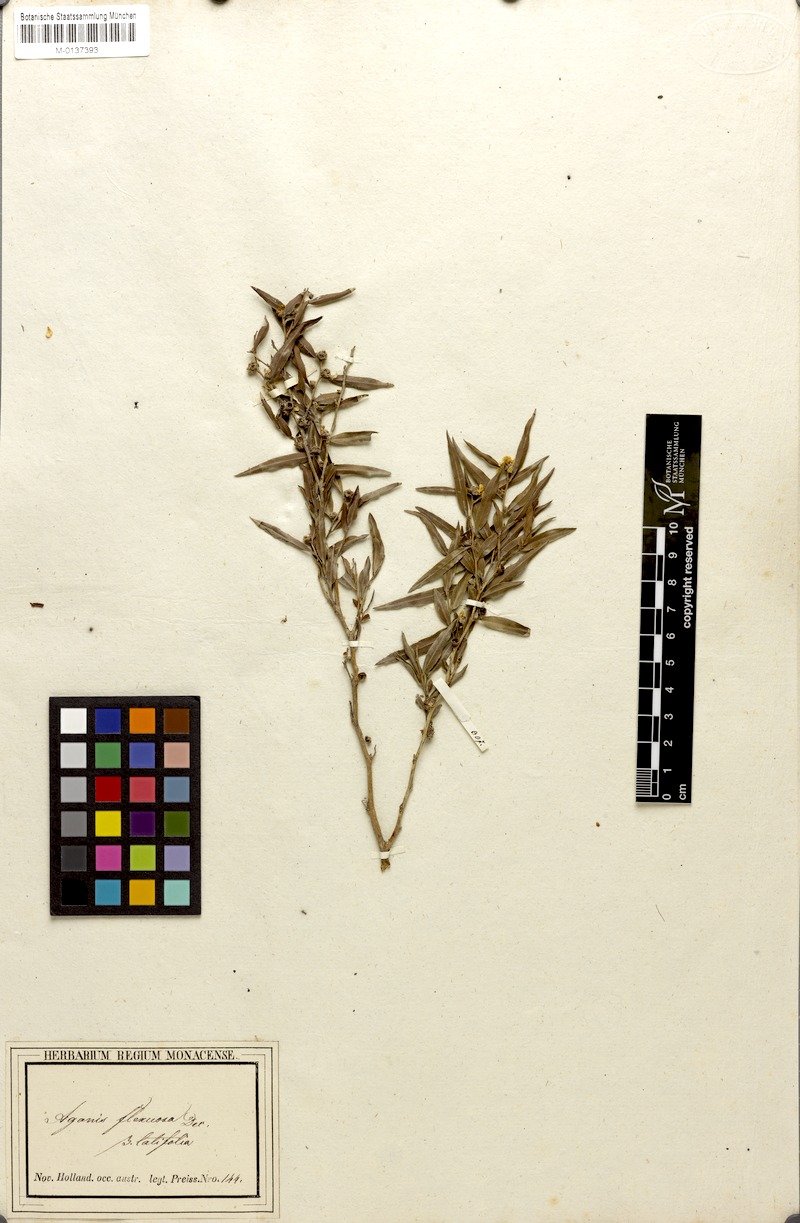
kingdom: Plantae
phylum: Tracheophyta
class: Magnoliopsida
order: Myrtales
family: Myrtaceae
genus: Agonis
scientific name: Agonis flexuosa
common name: Willow myrtle
